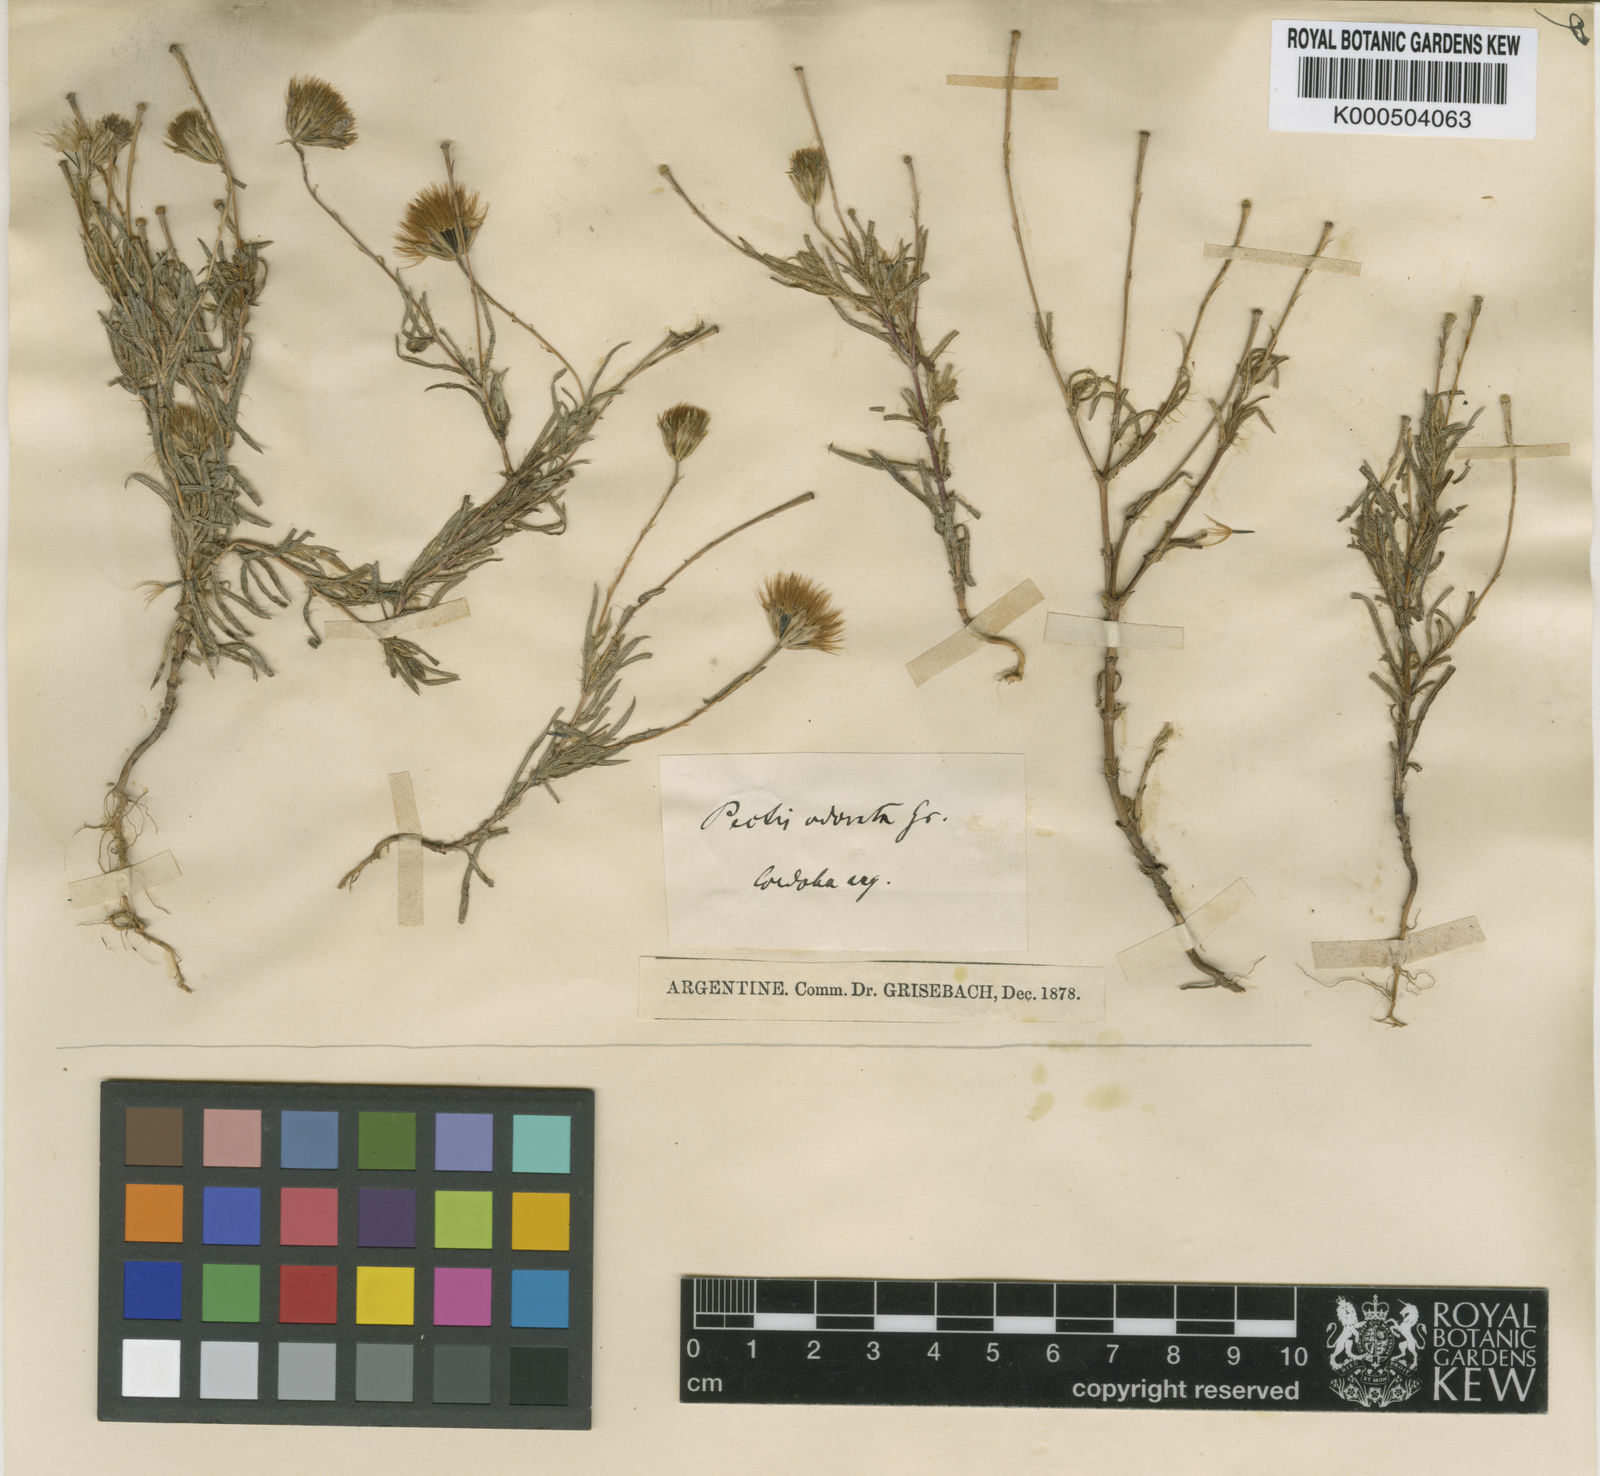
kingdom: Plantae
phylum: Tracheophyta
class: Magnoliopsida
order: Asterales
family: Asteraceae
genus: Pectis
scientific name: Pectis odorata
